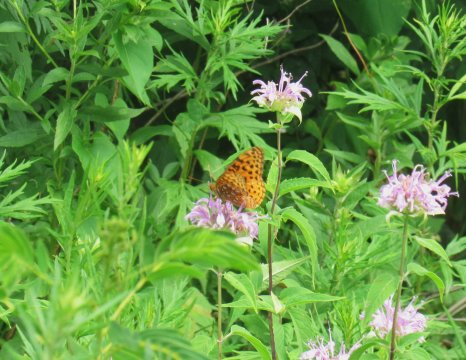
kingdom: Animalia
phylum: Arthropoda
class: Insecta
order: Lepidoptera
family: Nymphalidae
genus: Speyeria
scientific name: Speyeria cybele
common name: Great Spangled Fritillary
